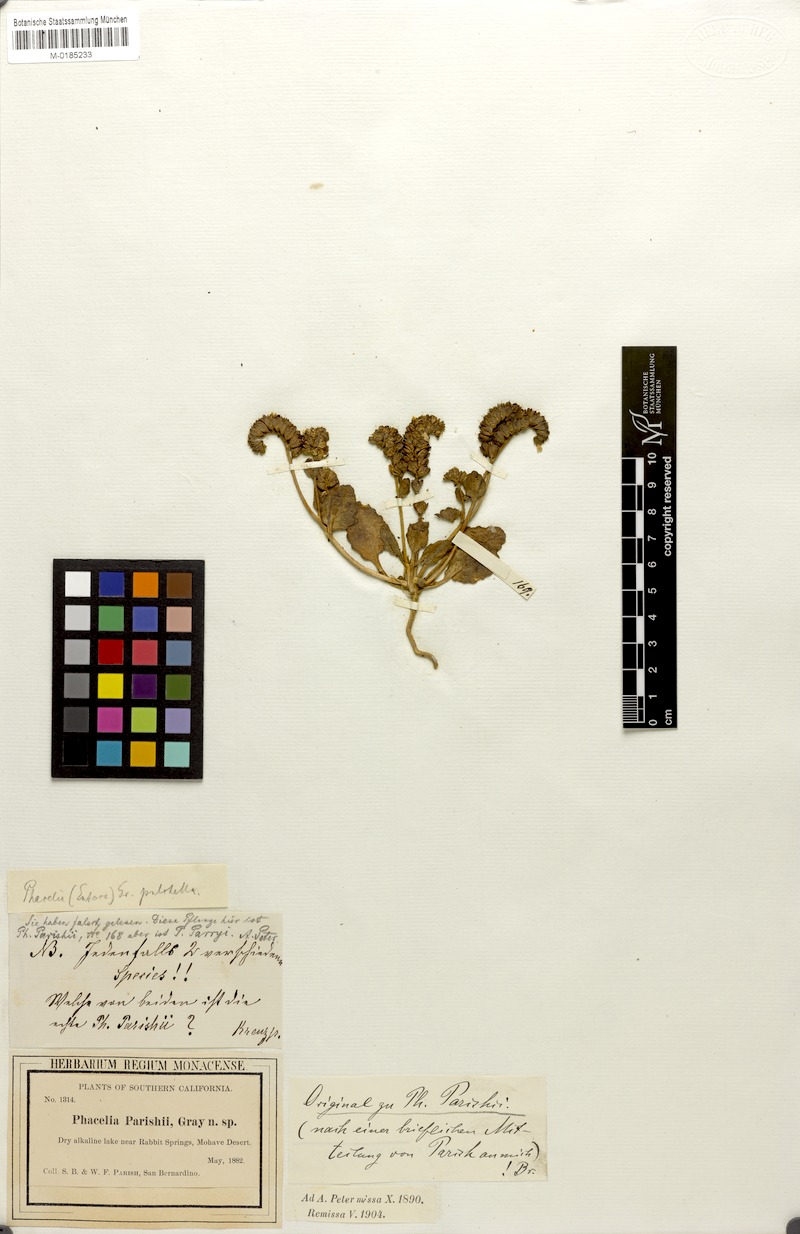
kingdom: Plantae
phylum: Tracheophyta
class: Magnoliopsida
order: Boraginales
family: Hydrophyllaceae
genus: Phacelia
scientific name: Phacelia parishii
